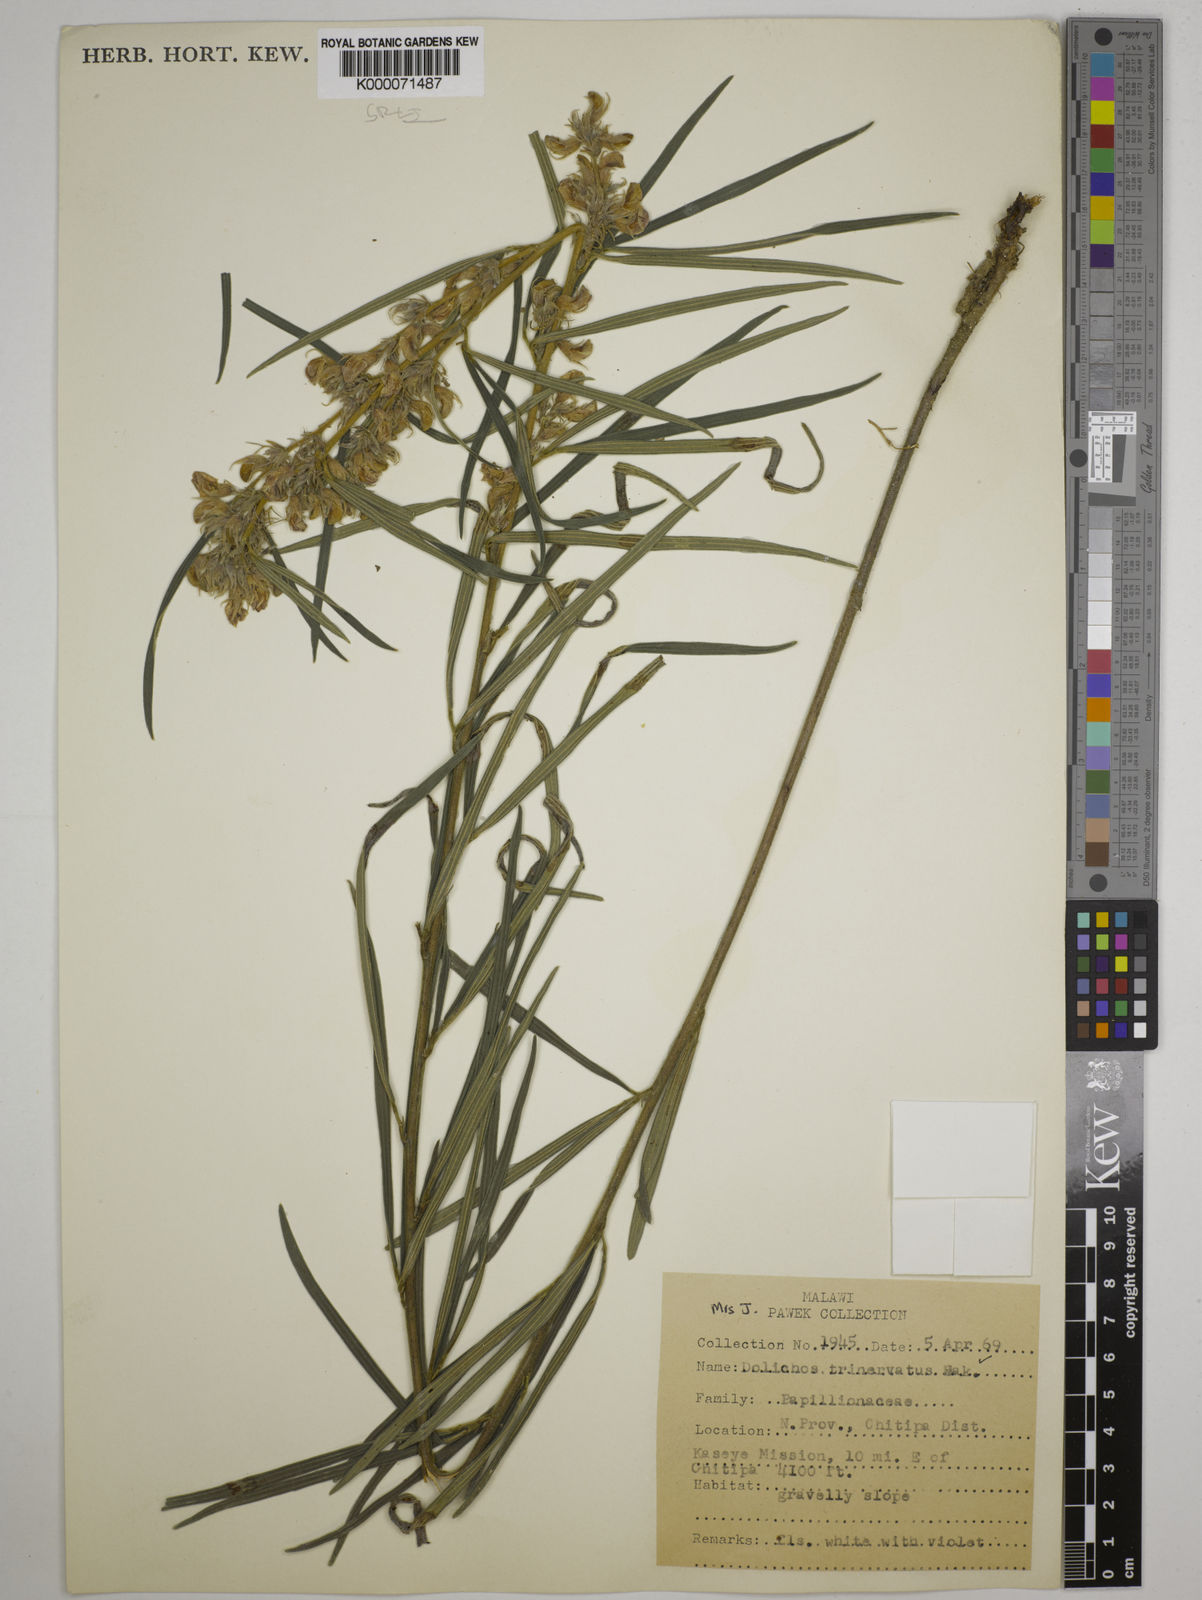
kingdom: Plantae
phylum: Tracheophyta
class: Magnoliopsida
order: Fabales
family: Fabaceae
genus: Dolichos
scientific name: Dolichos trinervatus
